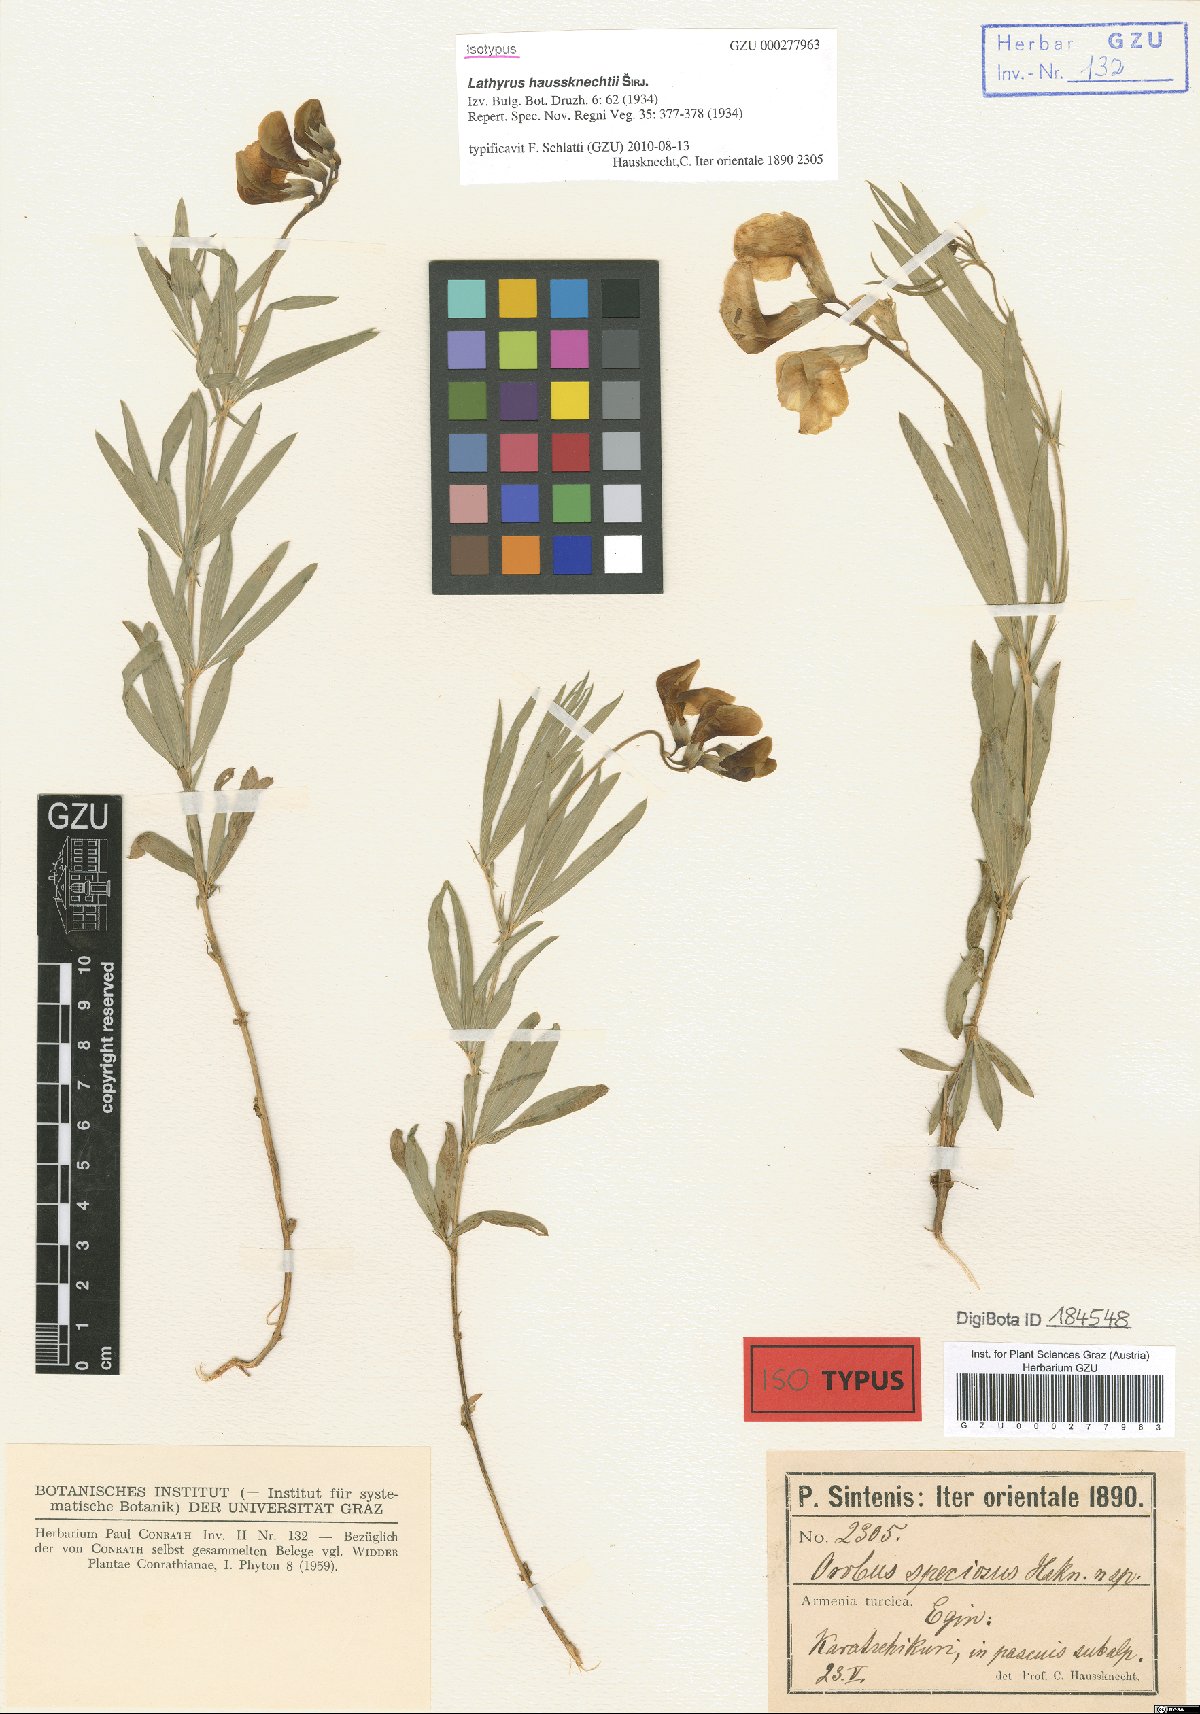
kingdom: Plantae
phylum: Tracheophyta
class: Magnoliopsida
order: Fabales
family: Fabaceae
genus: Lathyrus
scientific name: Lathyrus brachypterus
